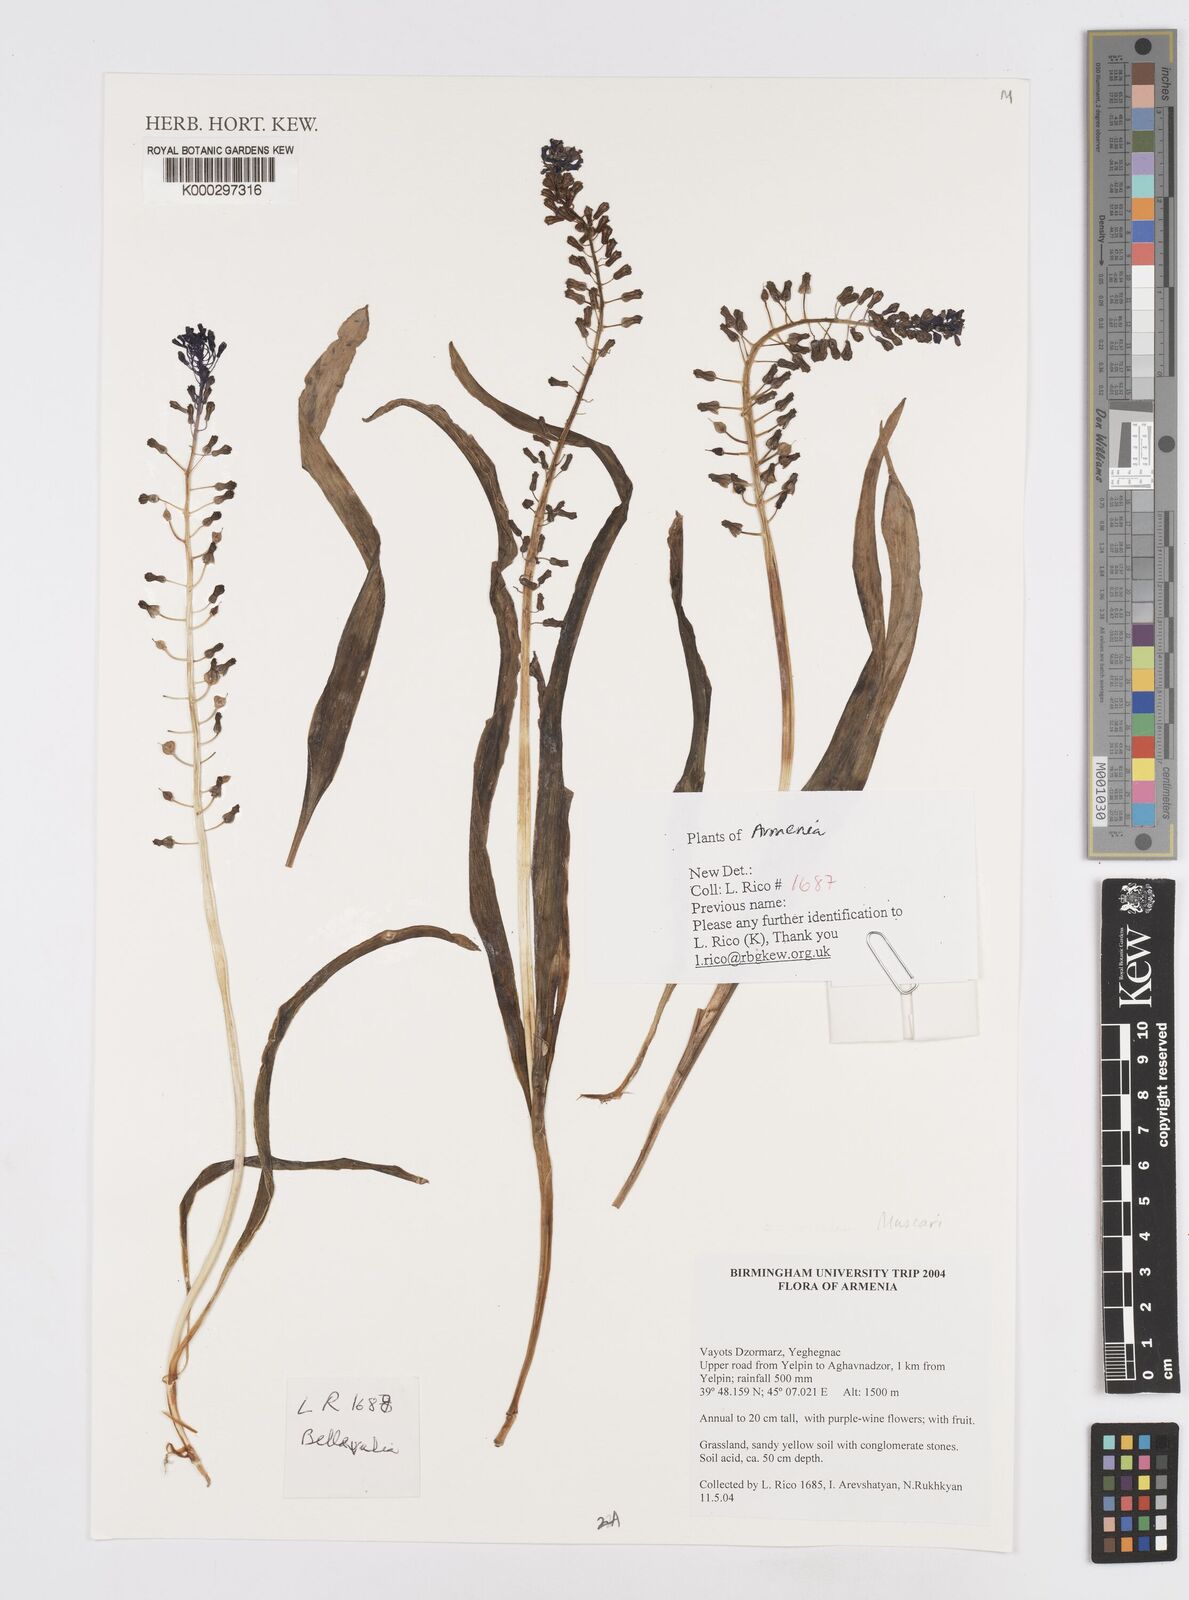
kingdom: Plantae
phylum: Tracheophyta
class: Liliopsida
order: Asparagales
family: Asparagaceae
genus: Muscari
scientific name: Muscari
